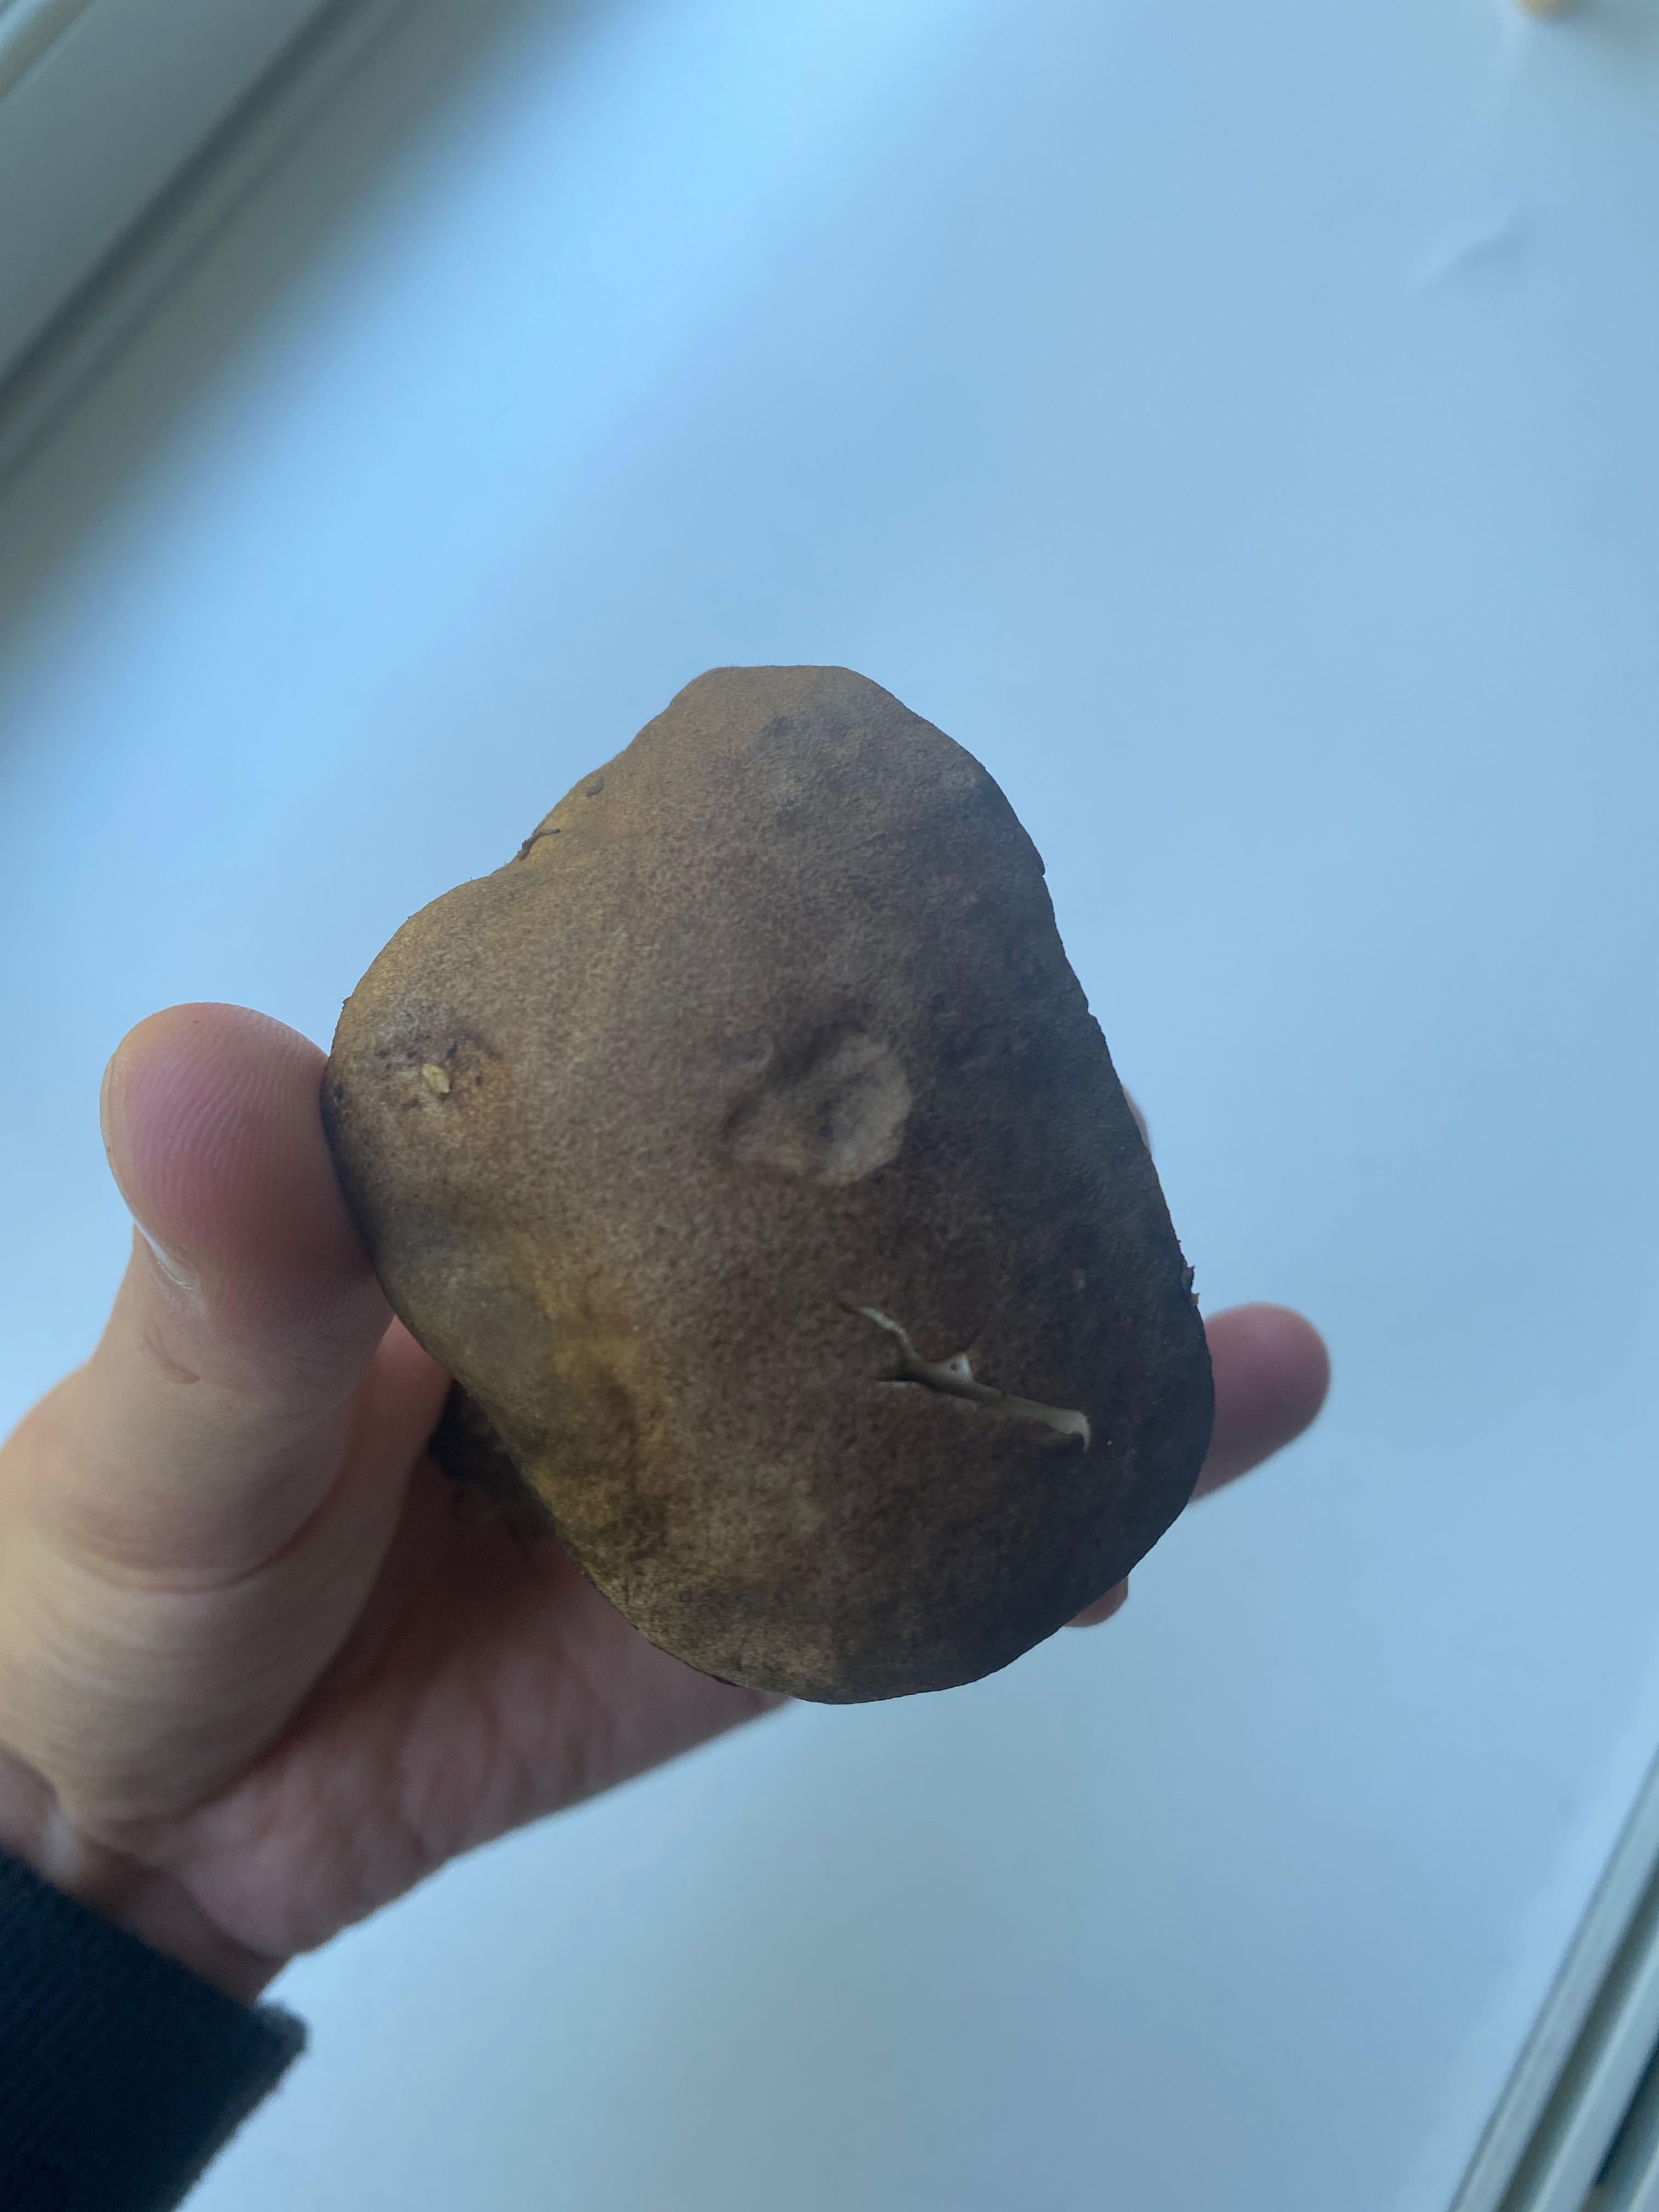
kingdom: Fungi
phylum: Basidiomycota
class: Agaricomycetes
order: Boletales
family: Boletaceae
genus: Leccinum
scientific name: Leccinum
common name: skælrørhat
